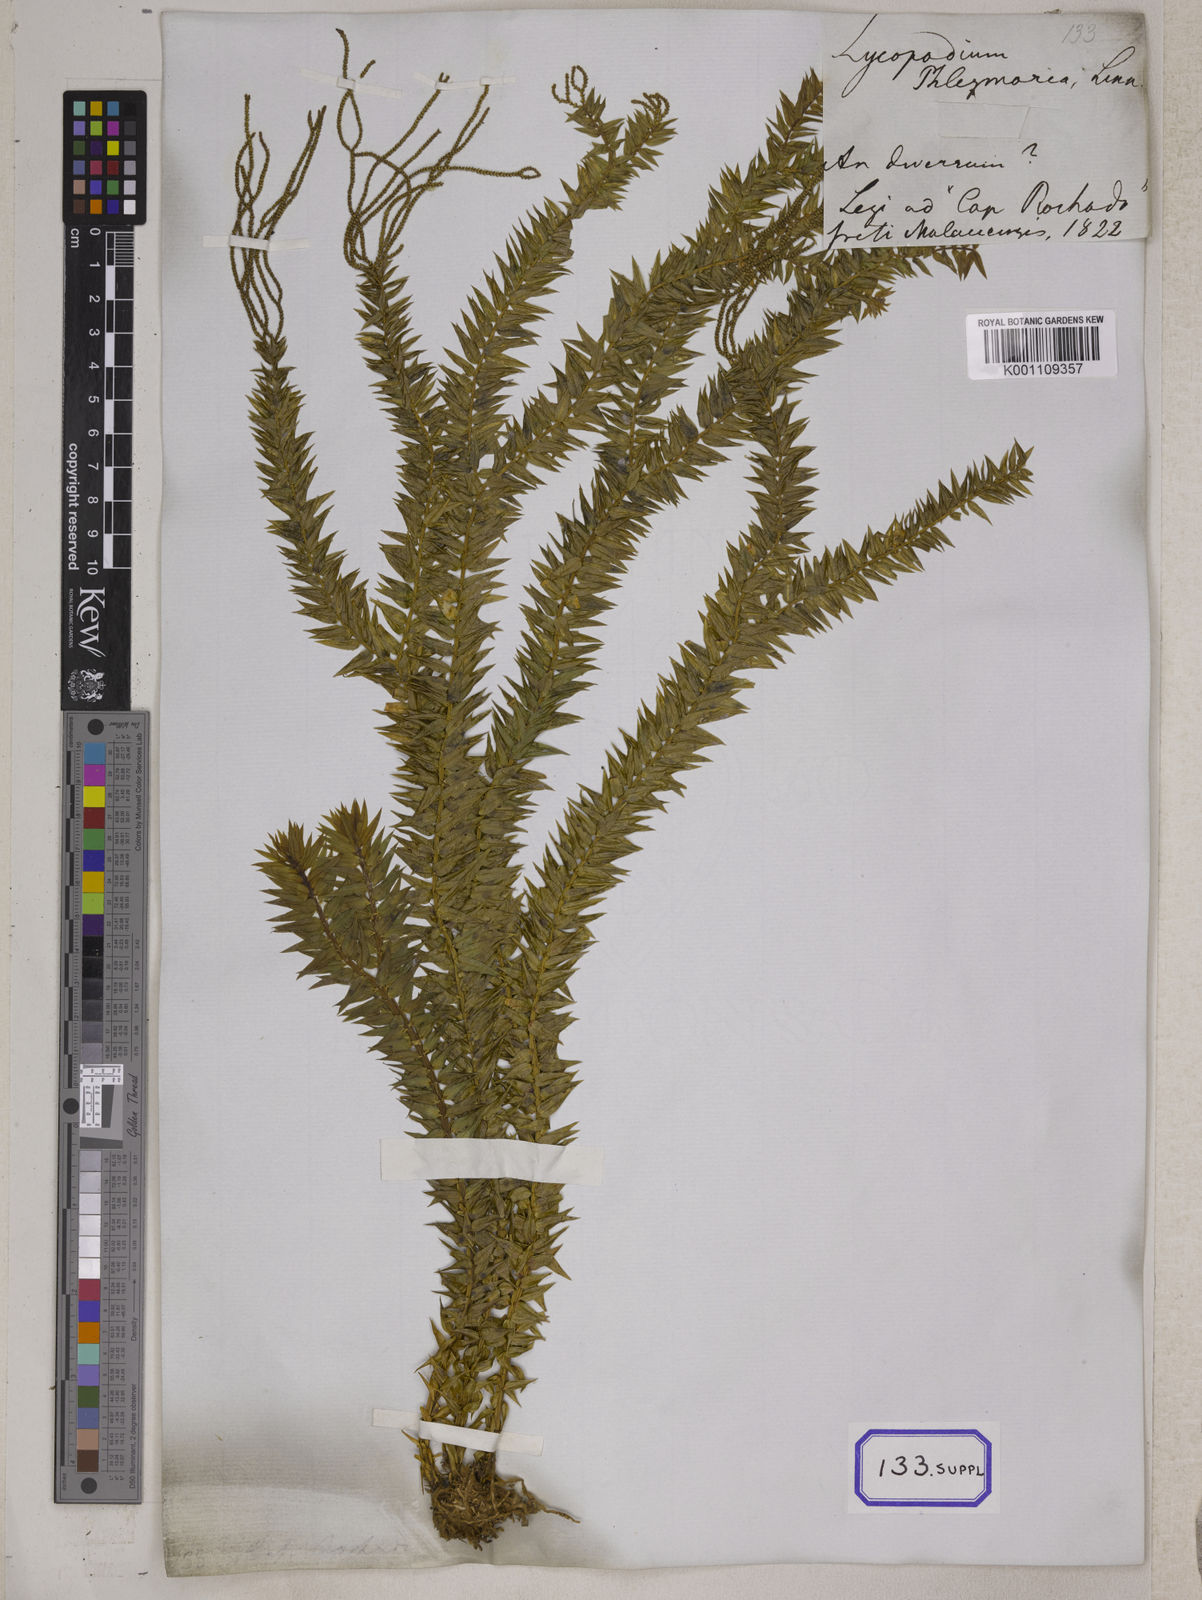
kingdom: Plantae
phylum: Tracheophyta
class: Lycopodiopsida
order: Lycopodiales
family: Lycopodiaceae
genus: Phlegmariurus
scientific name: Phlegmariurus phlegmaria
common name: Coarse tassel-fern
